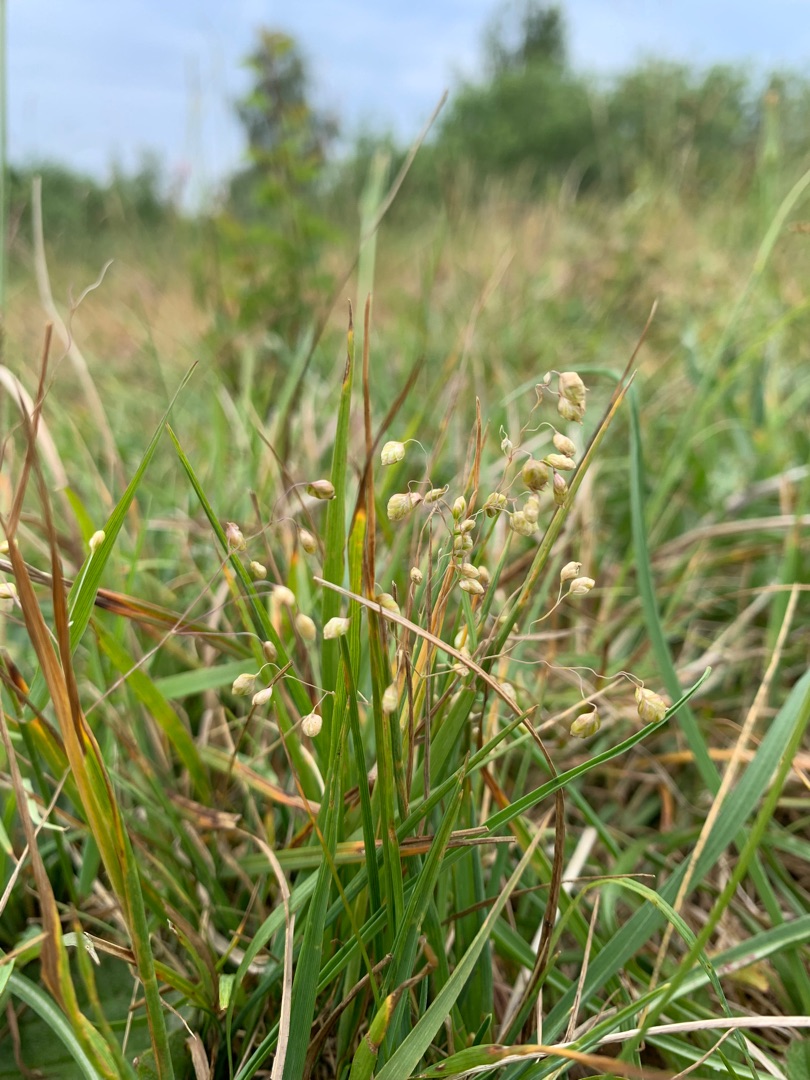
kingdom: Plantae
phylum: Tracheophyta
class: Liliopsida
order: Poales
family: Poaceae
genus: Briza
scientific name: Briza media
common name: Hjertegræs
